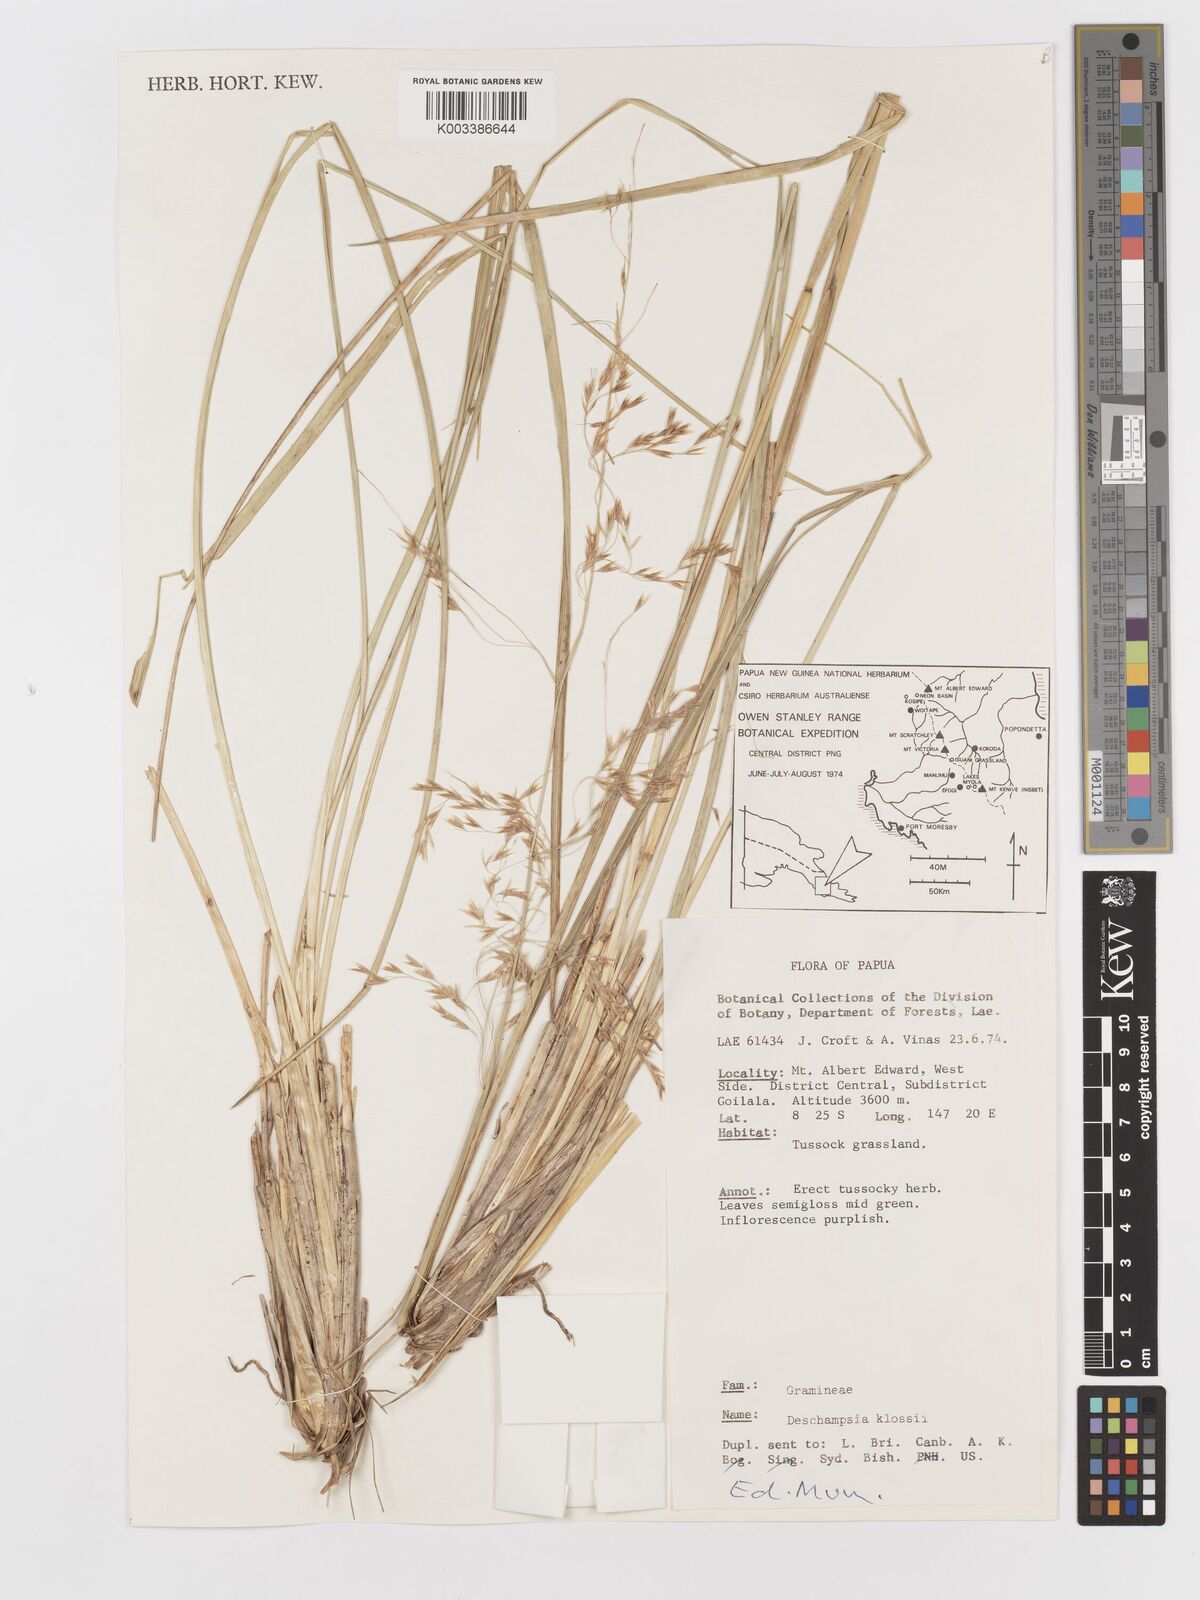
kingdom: Plantae
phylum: Tracheophyta
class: Liliopsida
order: Poales
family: Poaceae
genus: Deschampsia
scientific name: Deschampsia klossii
